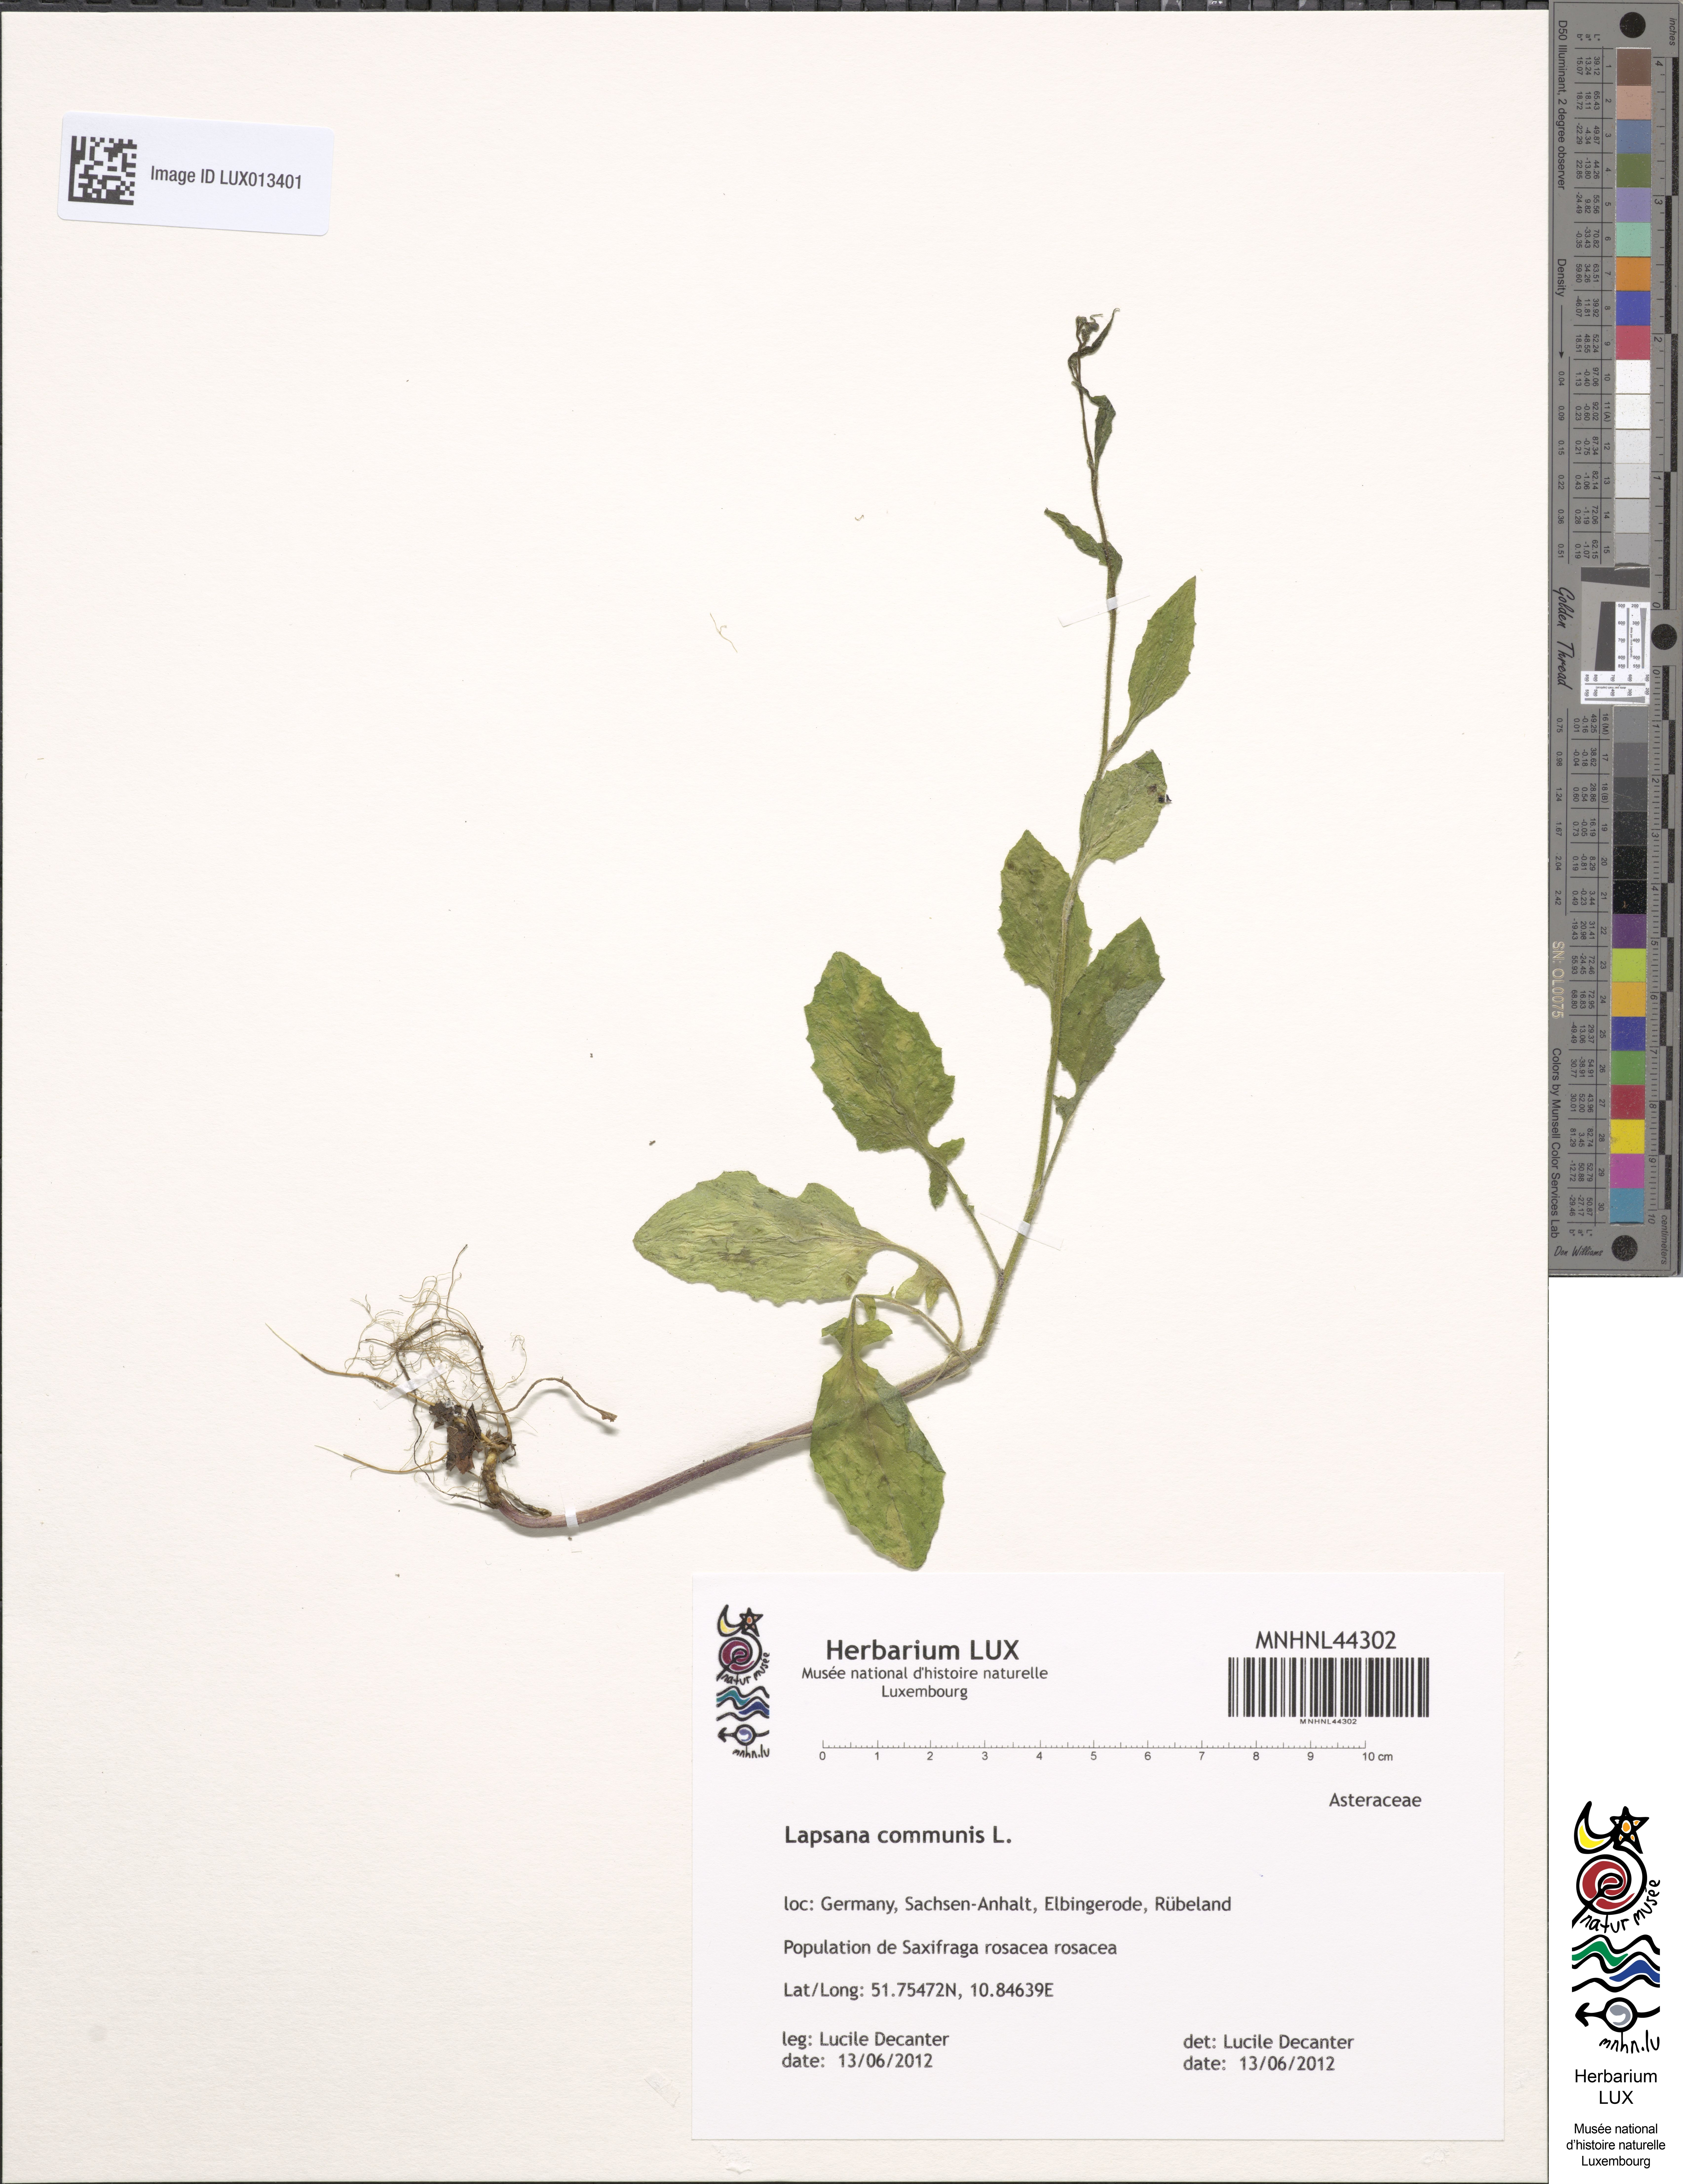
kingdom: Plantae
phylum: Tracheophyta
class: Magnoliopsida
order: Asterales
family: Asteraceae
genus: Lapsana
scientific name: Lapsana communis
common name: Nipplewort
